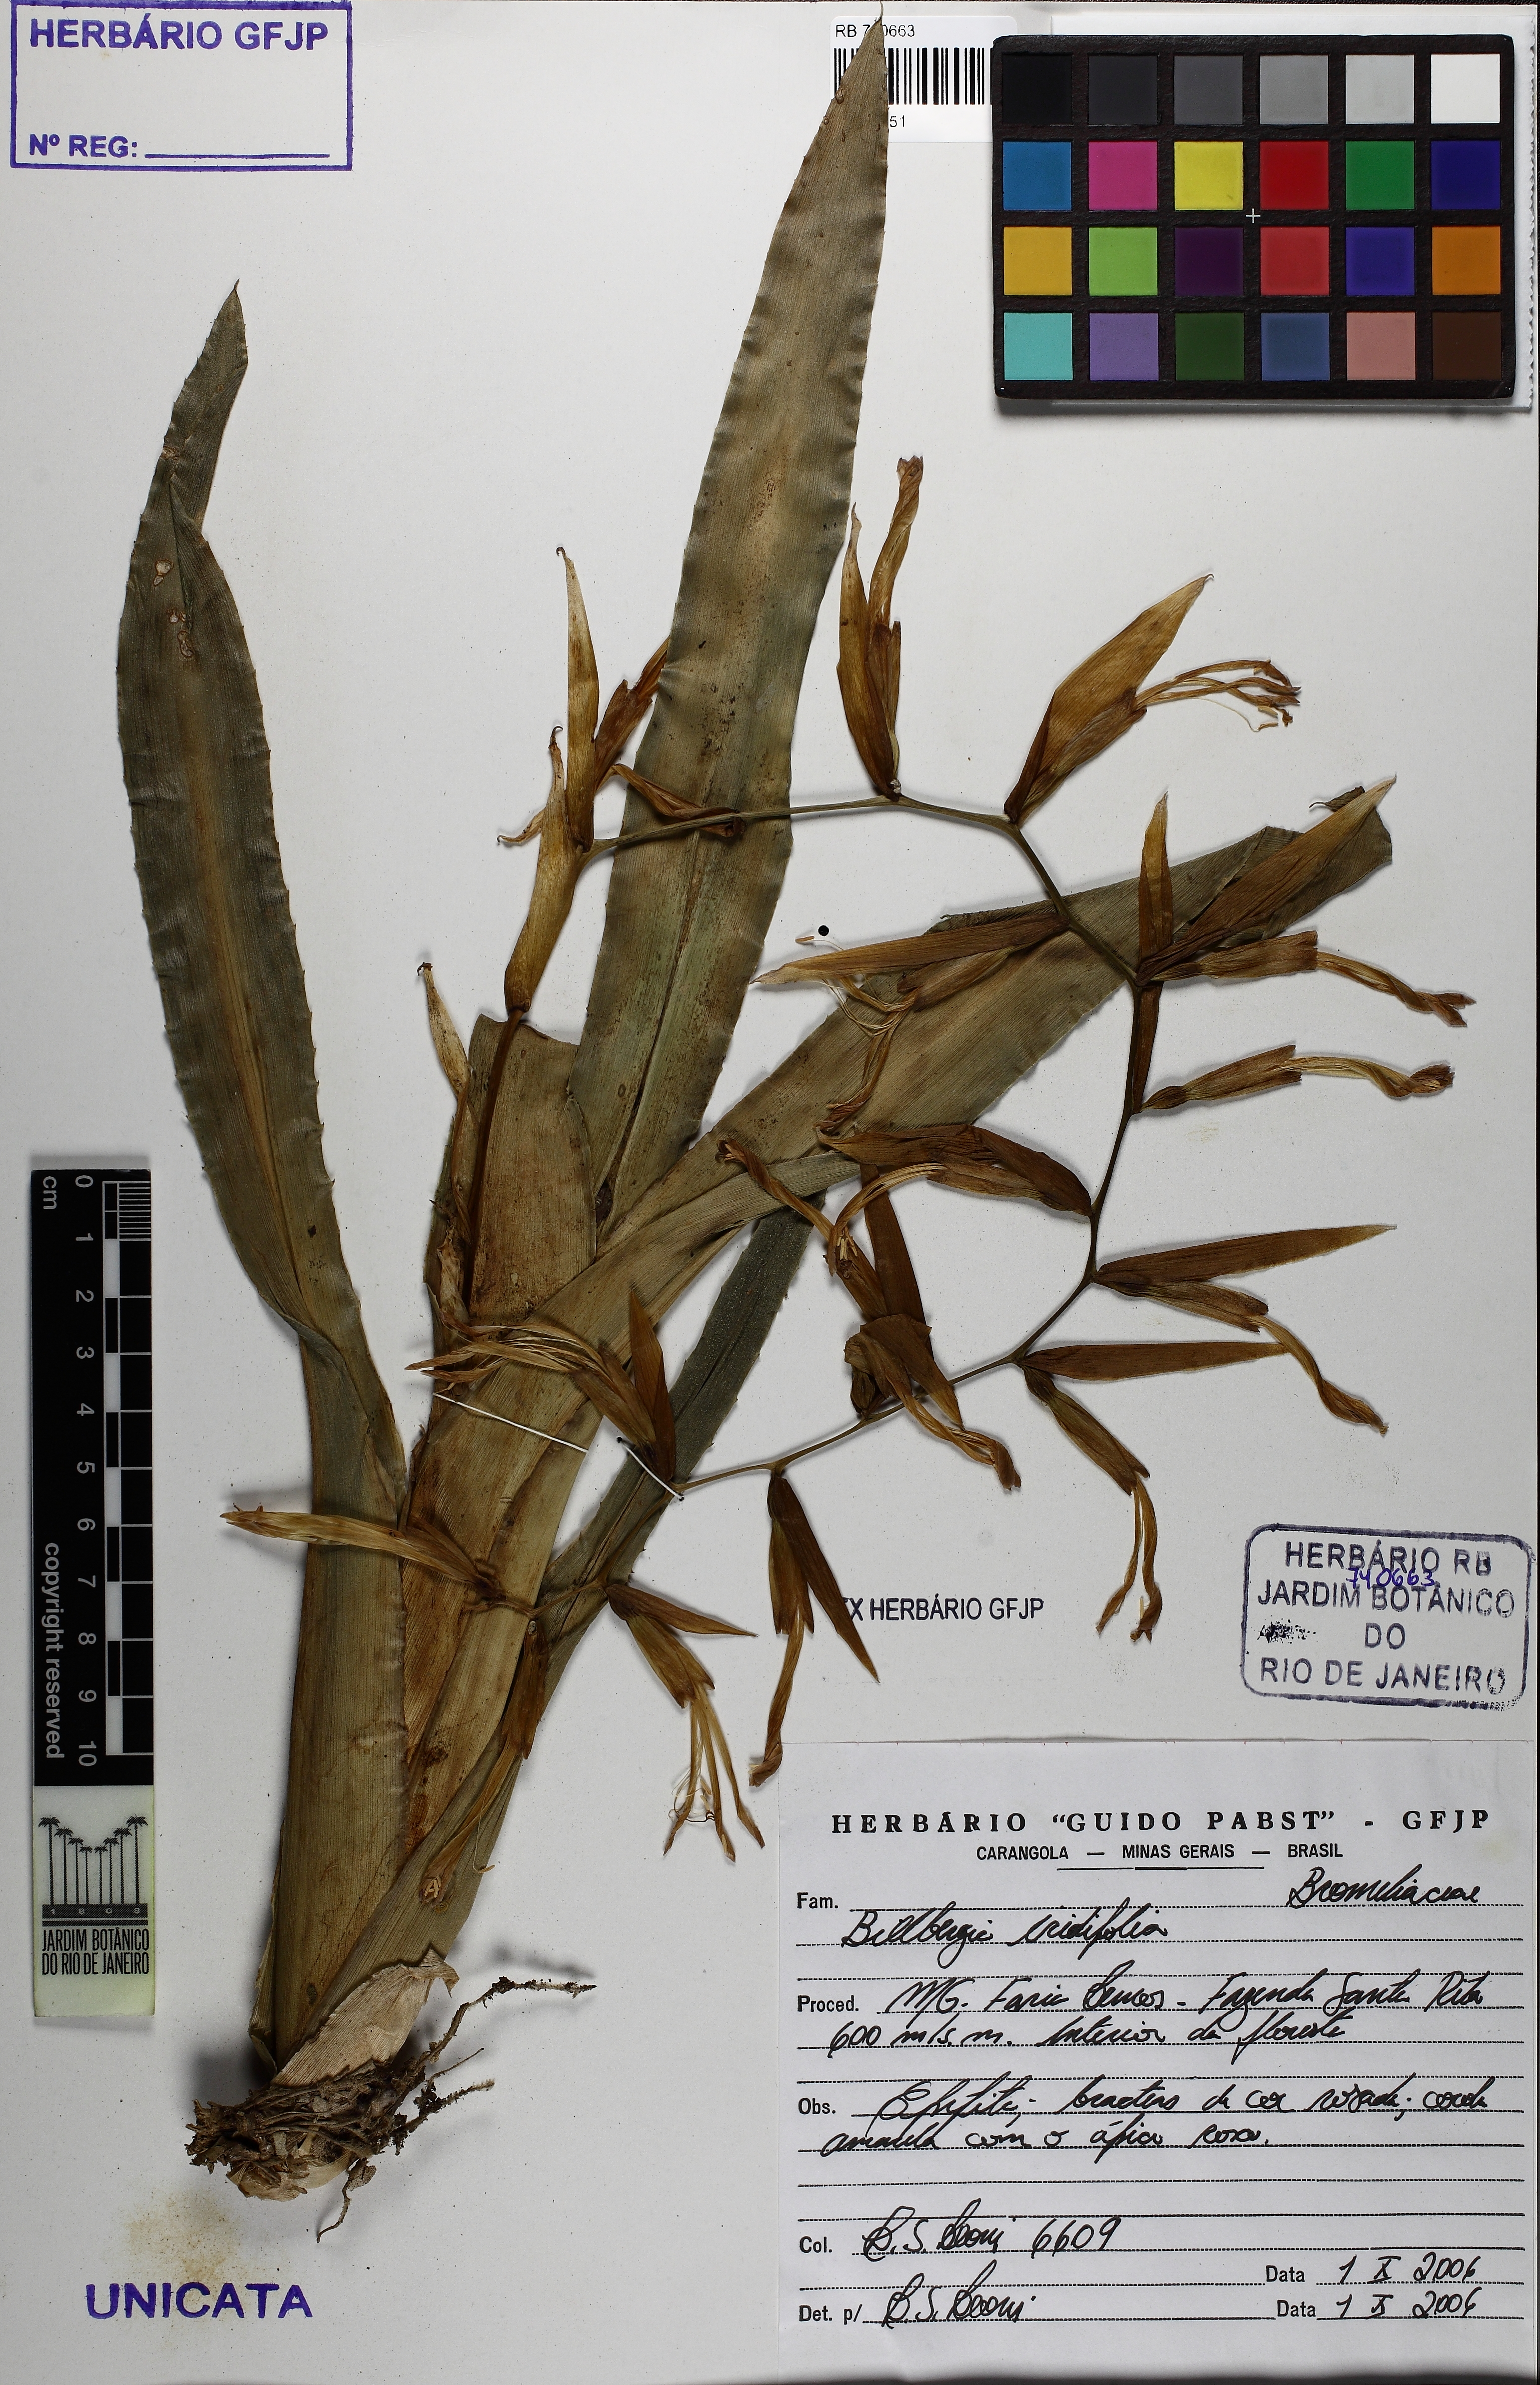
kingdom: Plantae
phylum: Tracheophyta
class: Liliopsida
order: Poales
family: Bromeliaceae
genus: Billbergia
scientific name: Billbergia iridifolia
